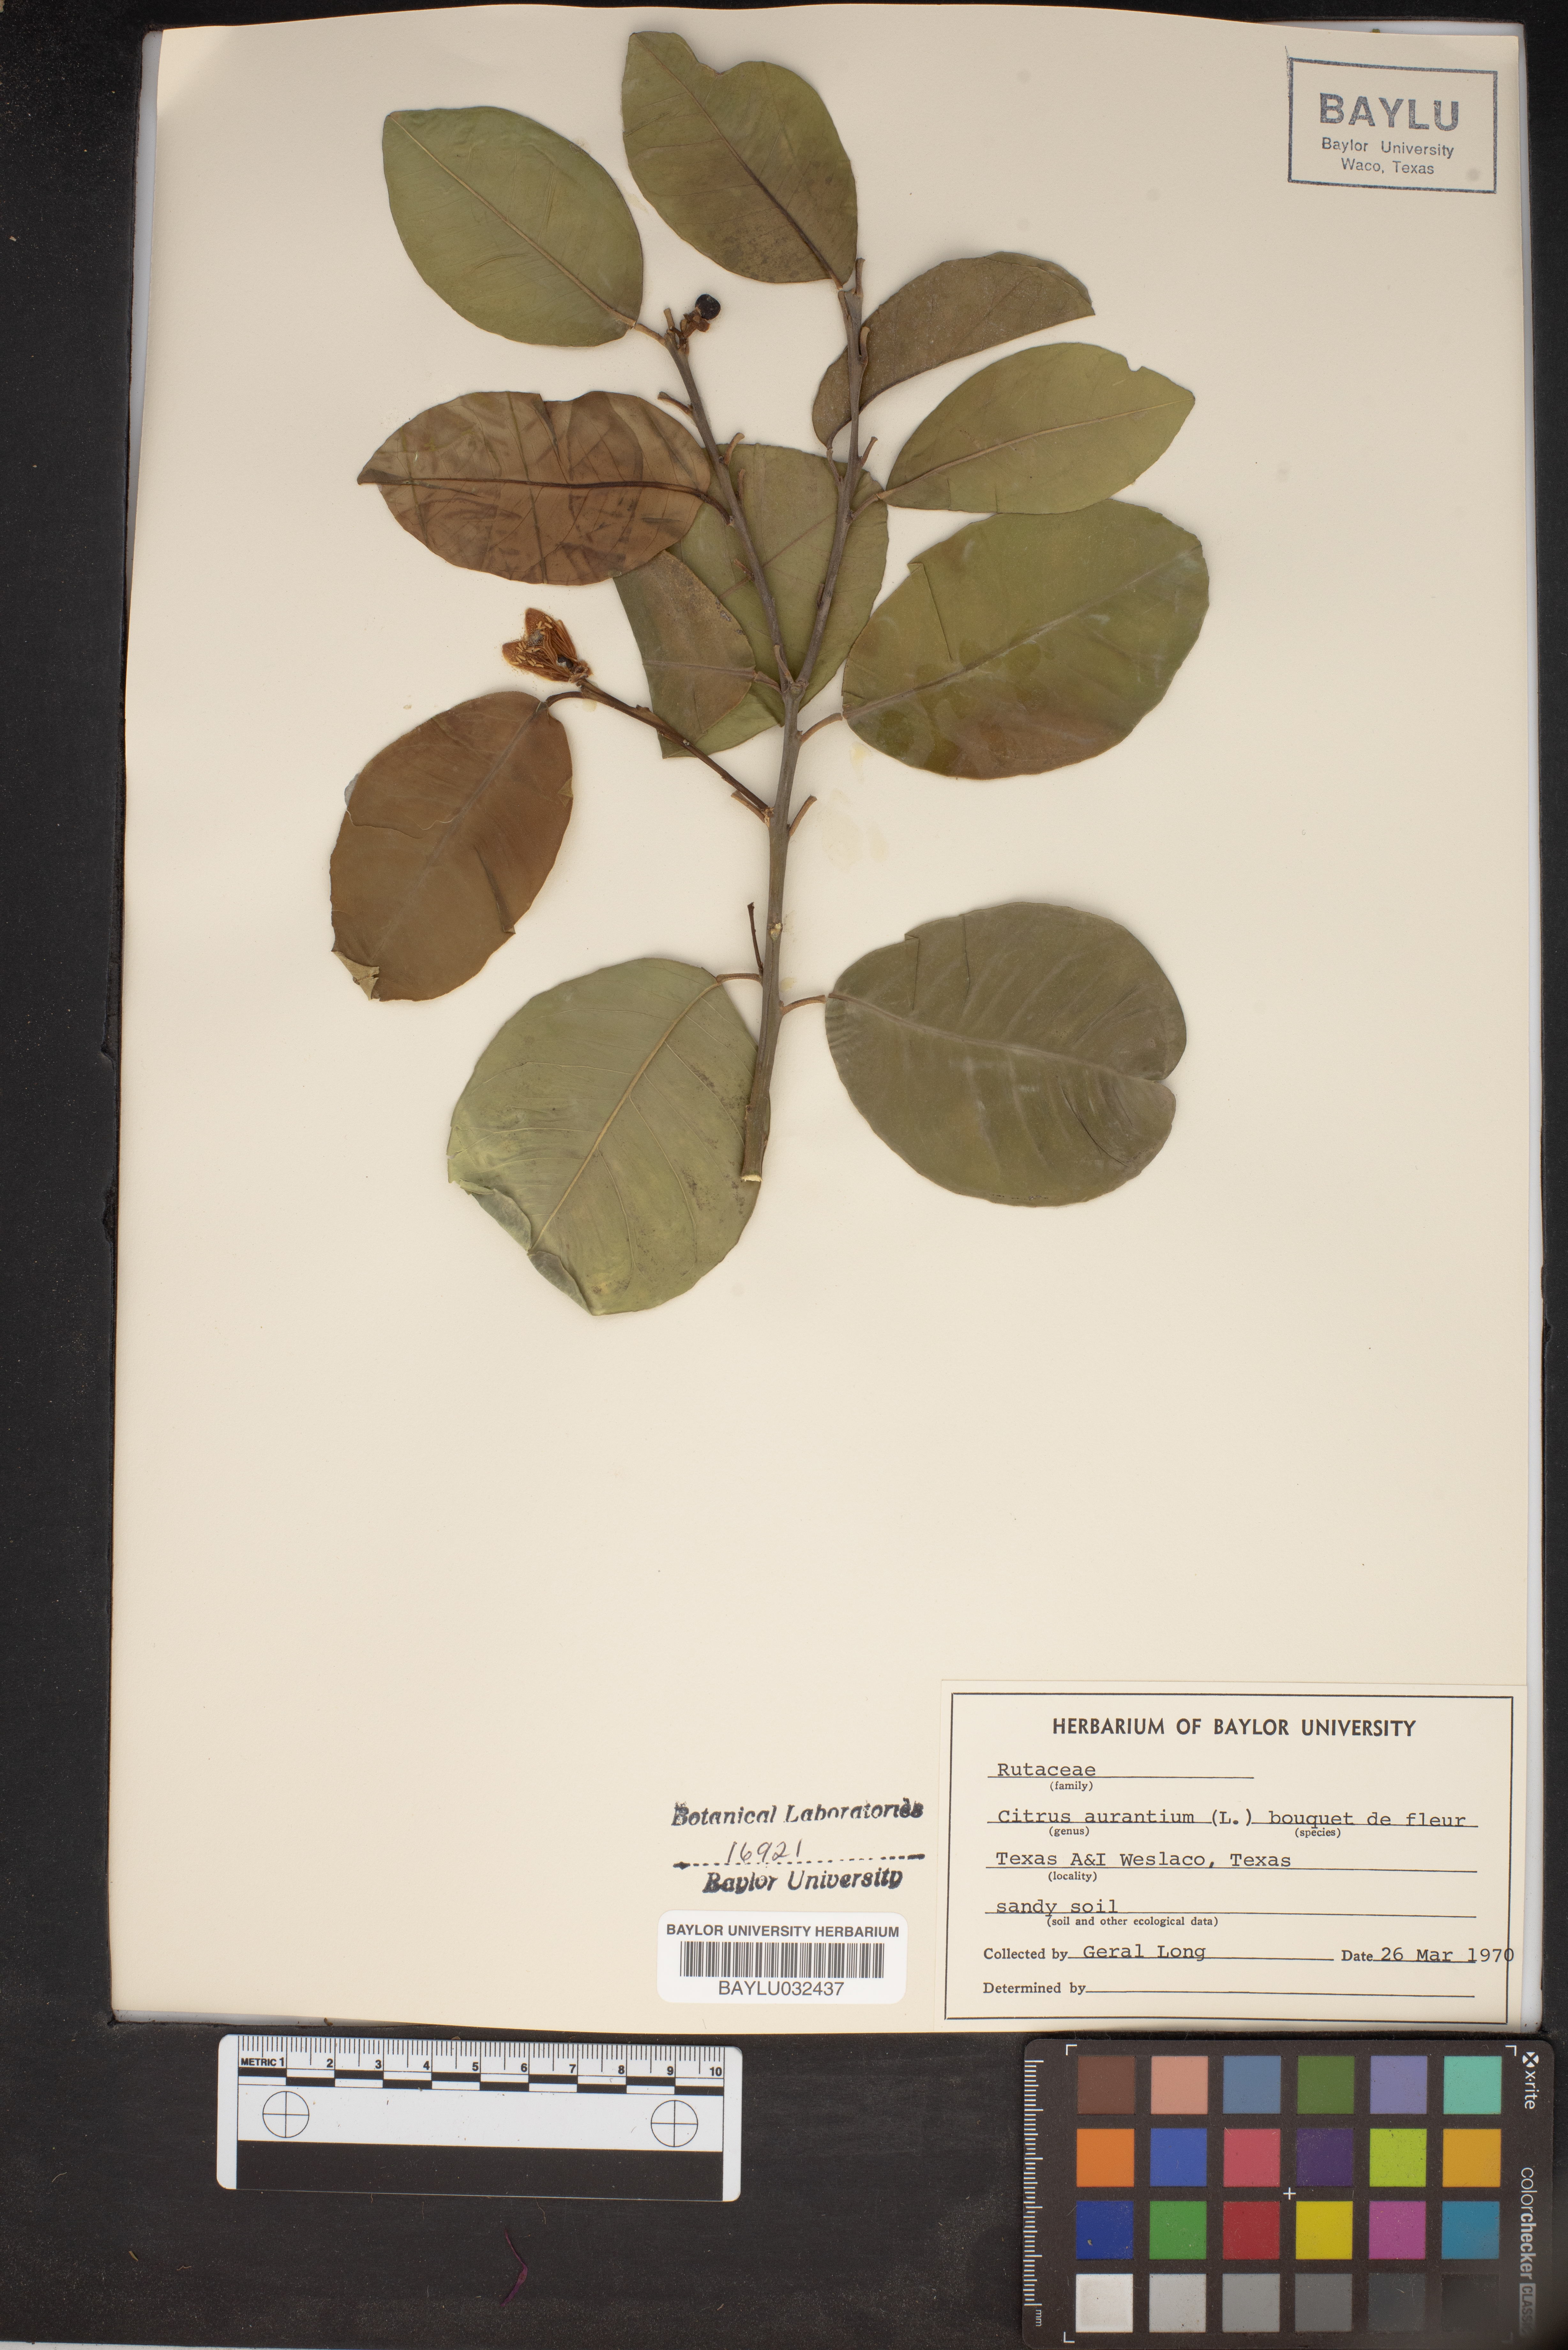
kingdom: Plantae
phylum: Tracheophyta
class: Magnoliopsida
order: Sapindales
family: Rutaceae
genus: Citrus
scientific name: Citrus aurantium
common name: Sour orange
